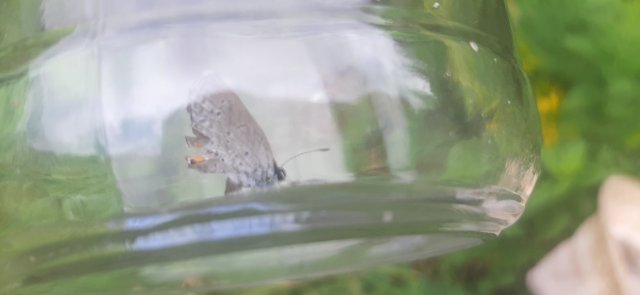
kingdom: Animalia
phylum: Arthropoda
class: Insecta
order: Lepidoptera
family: Lycaenidae
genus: Elkalyce
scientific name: Elkalyce comyntas
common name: Eastern Tailed-Blue
